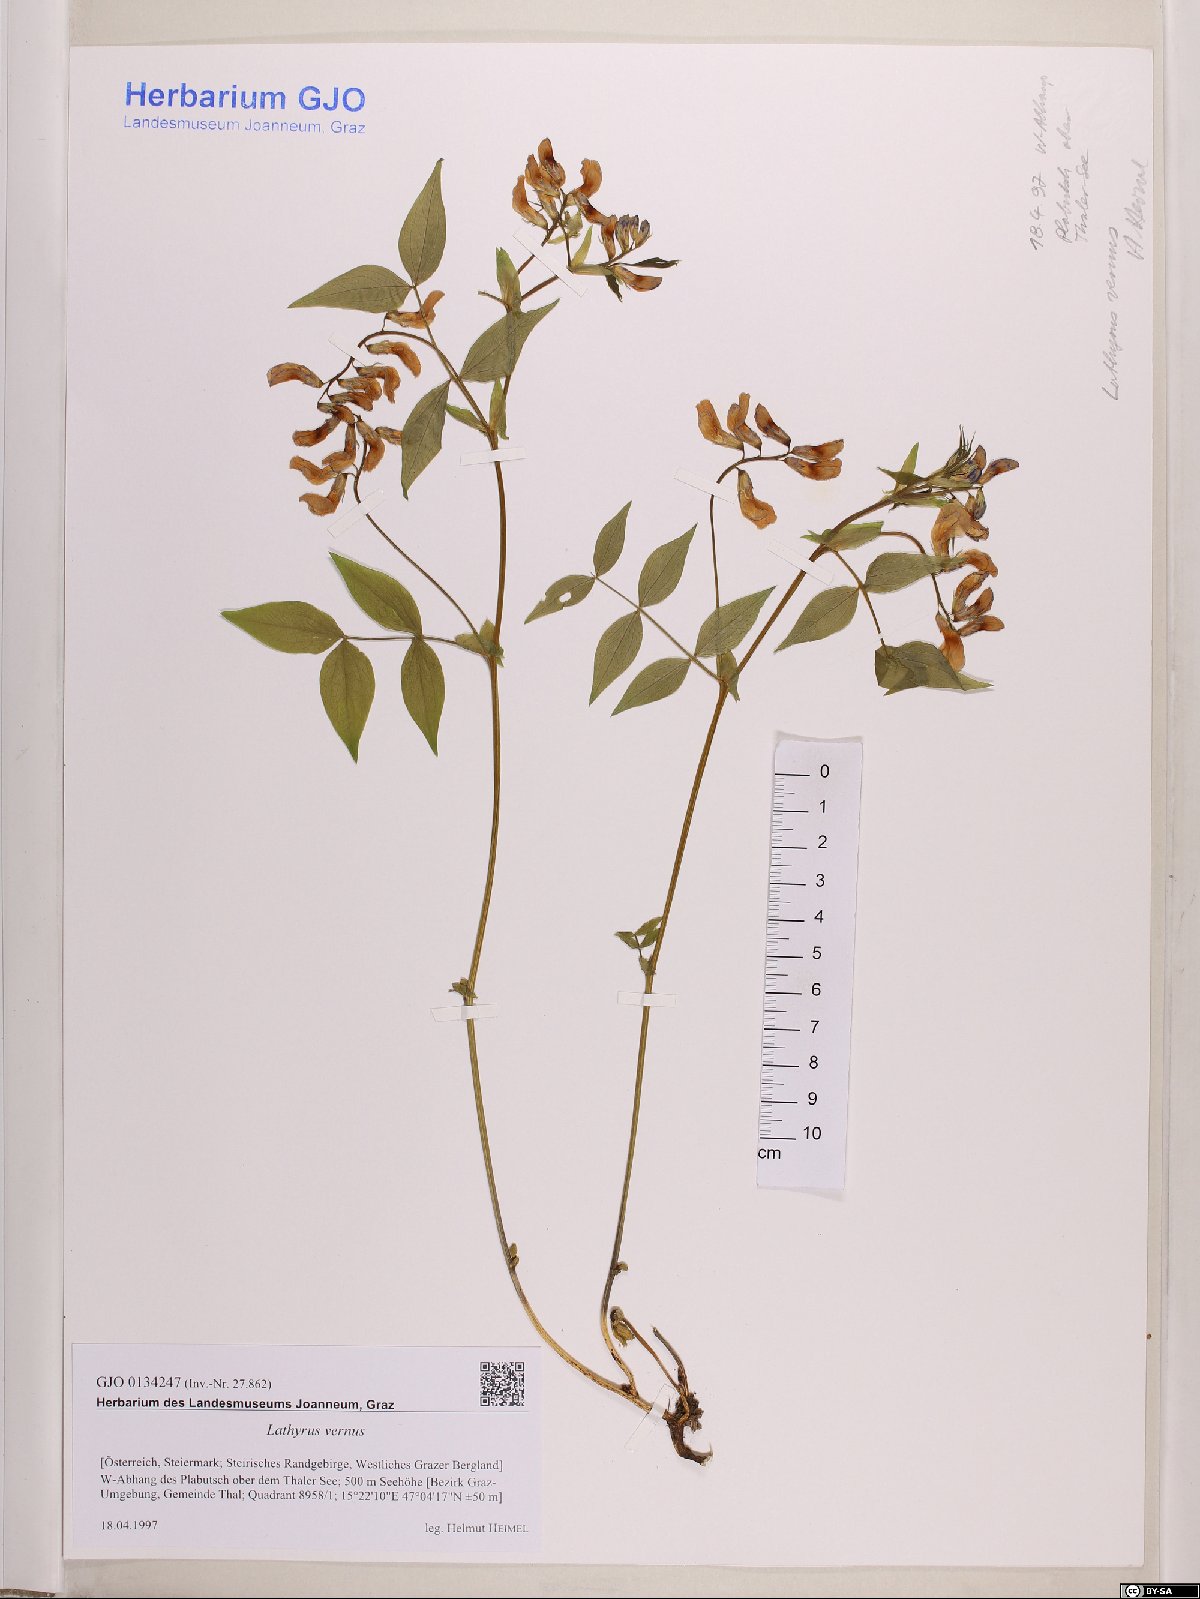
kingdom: Plantae
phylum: Tracheophyta
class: Magnoliopsida
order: Fabales
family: Fabaceae
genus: Lathyrus
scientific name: Lathyrus vernus
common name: Spring pea
